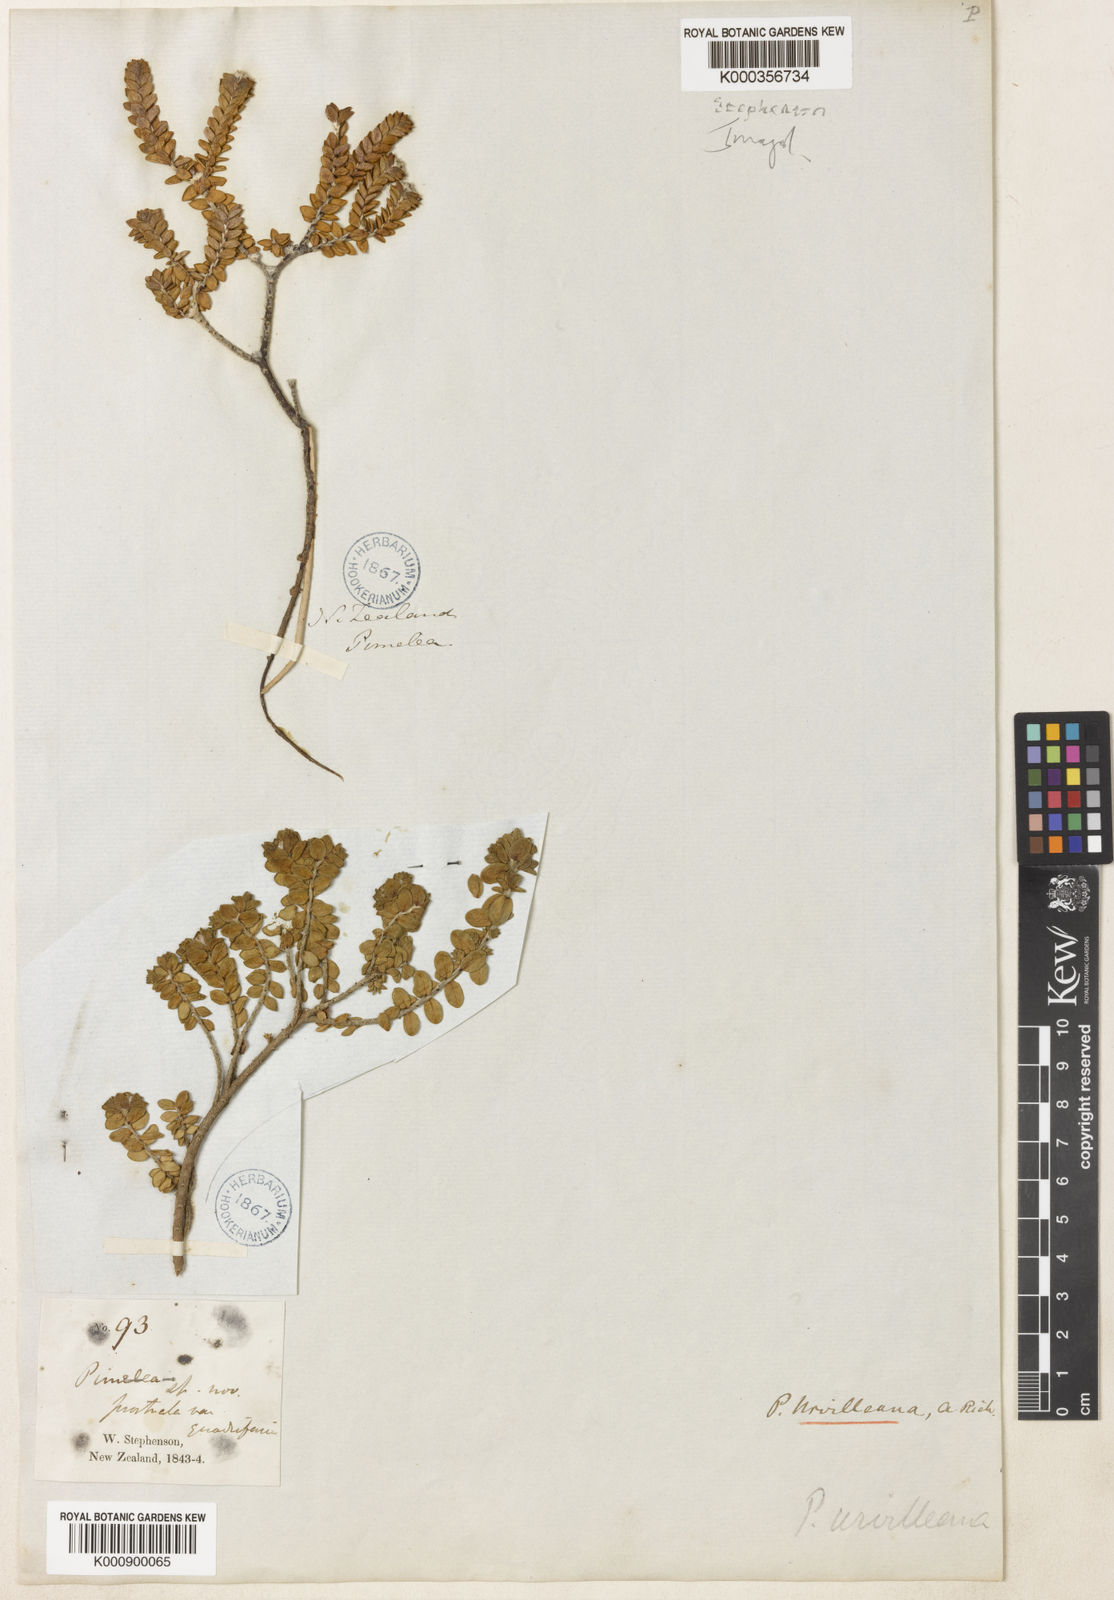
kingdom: Plantae
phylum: Tracheophyta
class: Magnoliopsida
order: Malvales
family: Thymelaeaceae
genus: Pimelea
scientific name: Pimelea
